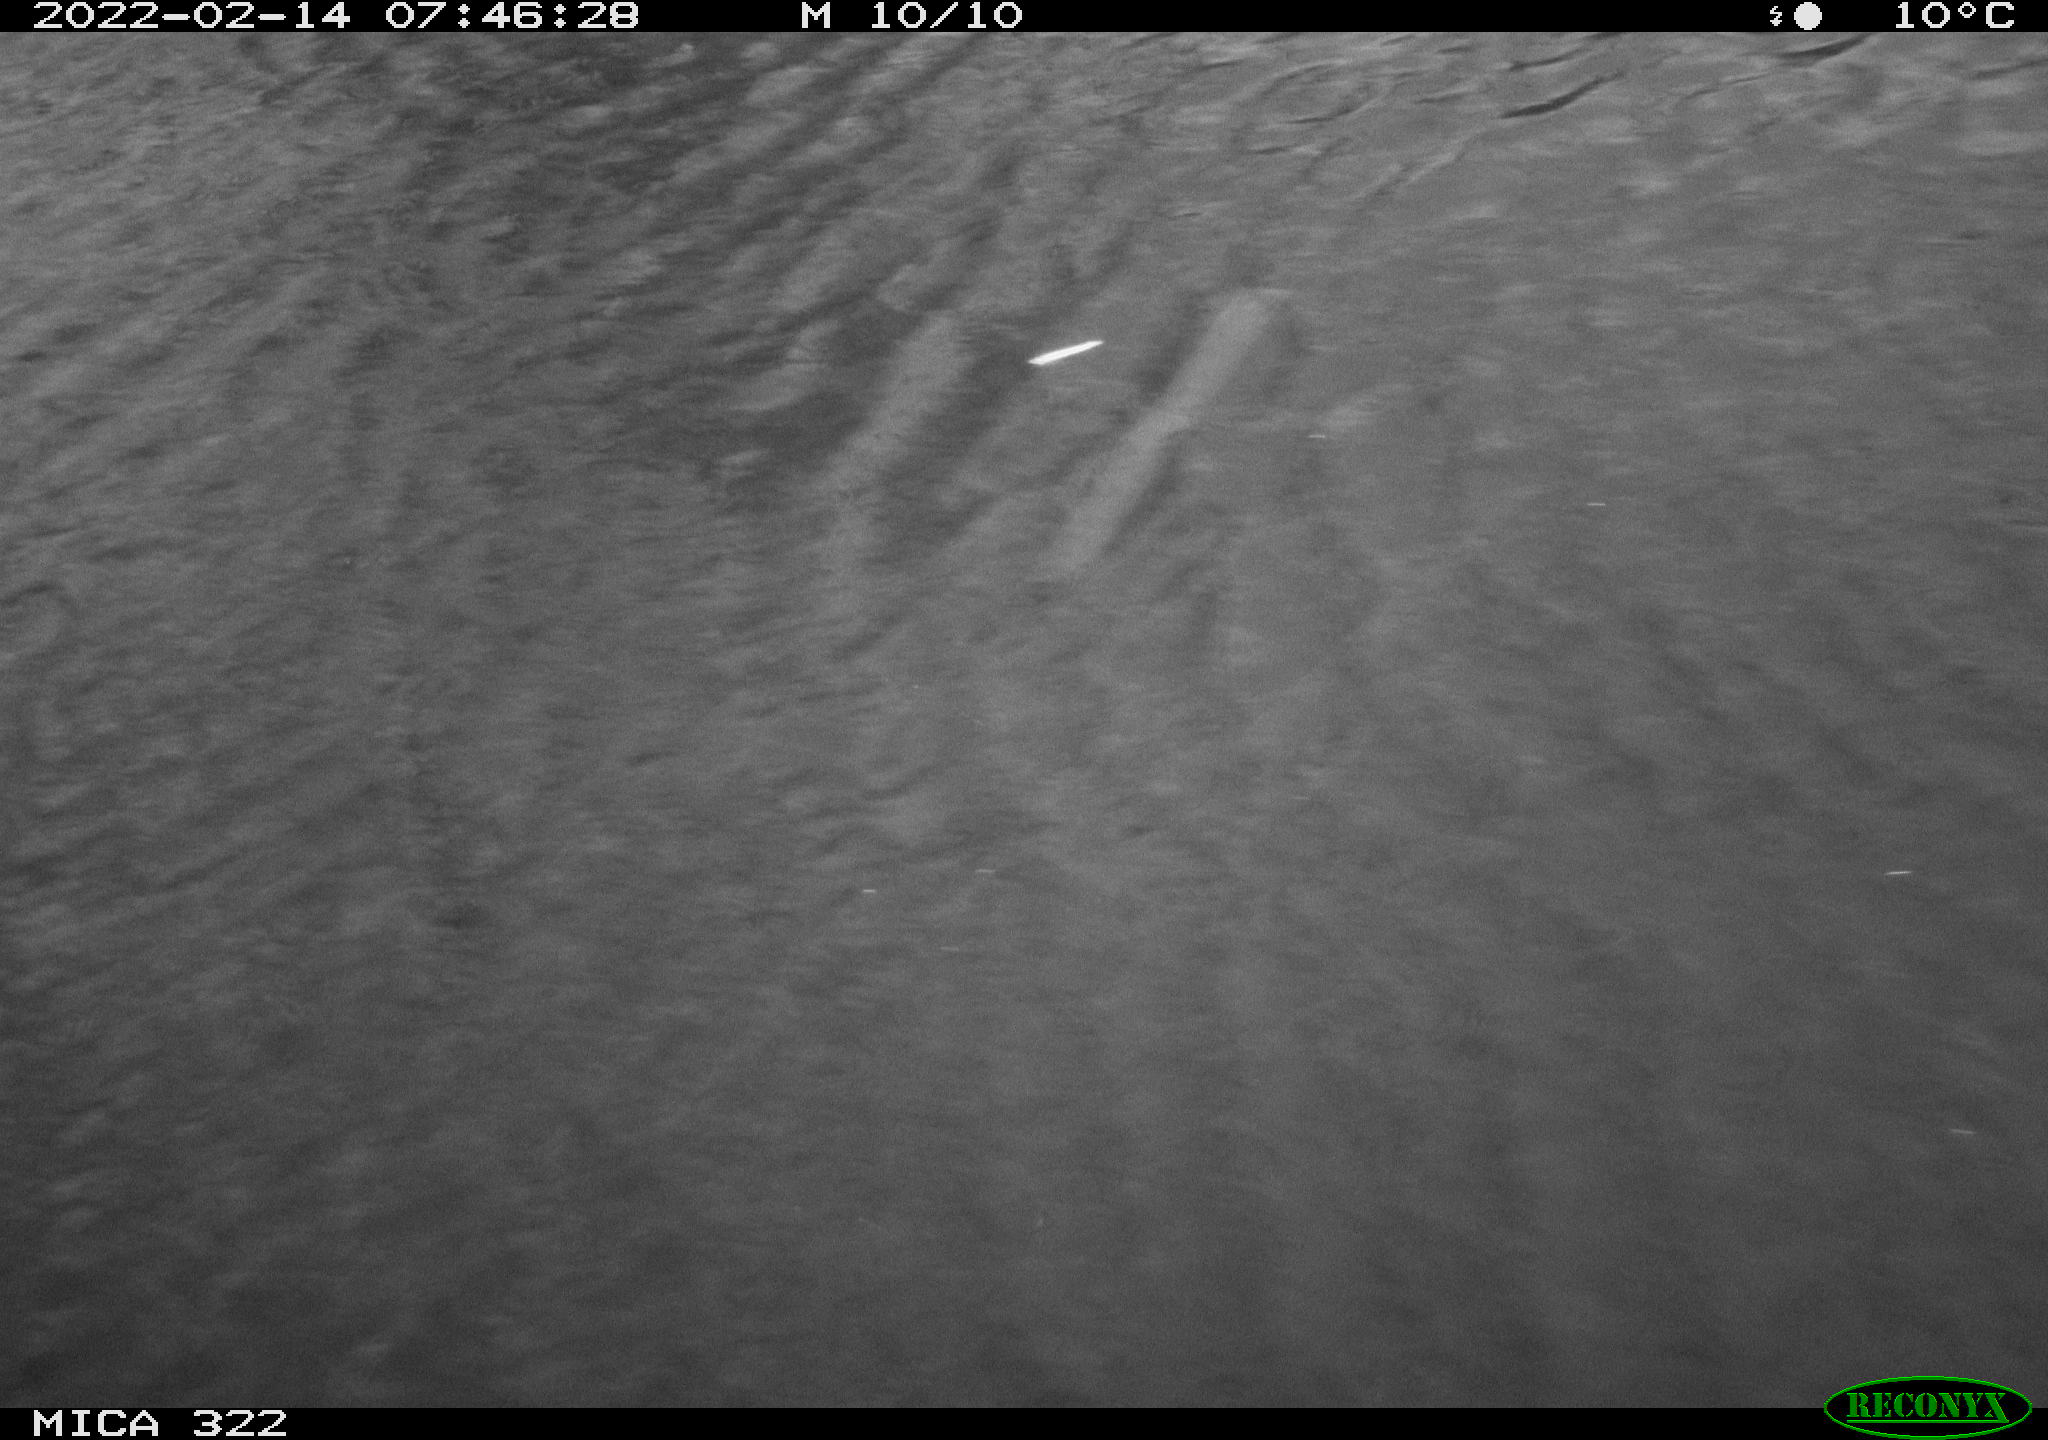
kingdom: Animalia
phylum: Chordata
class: Aves
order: Gruiformes
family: Rallidae
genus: Gallinula
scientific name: Gallinula chloropus
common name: Common moorhen
